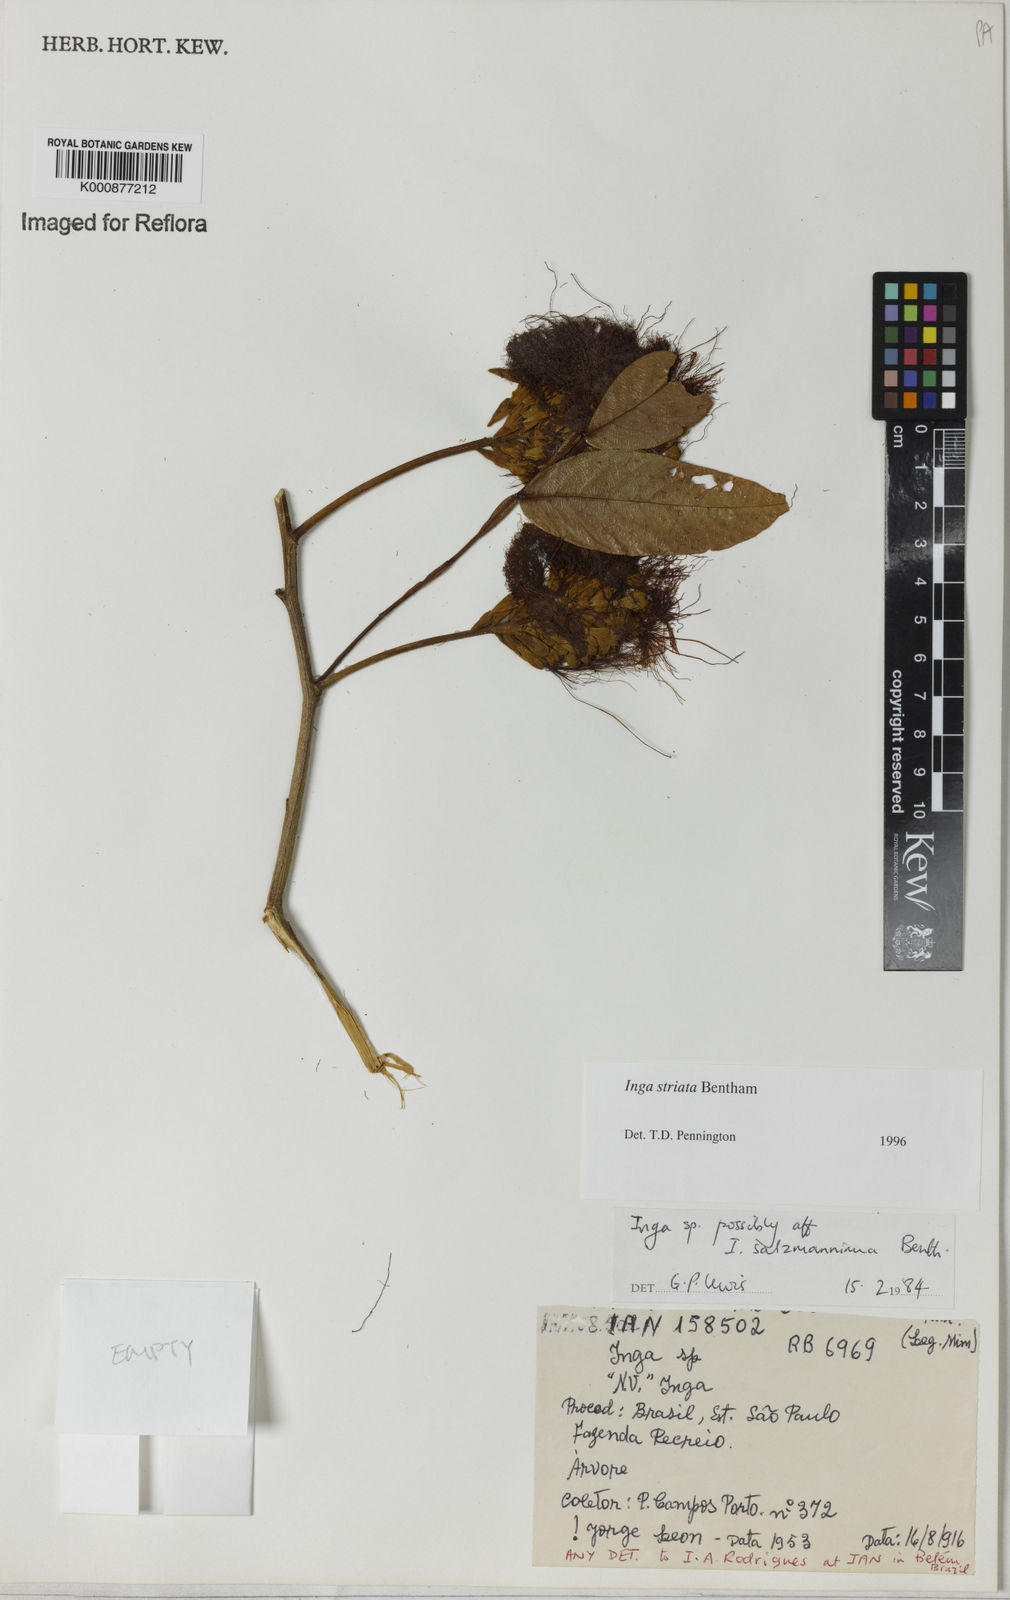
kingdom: Plantae
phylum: Tracheophyta
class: Magnoliopsida
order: Fabales
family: Fabaceae
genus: Inga
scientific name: Inga striata
